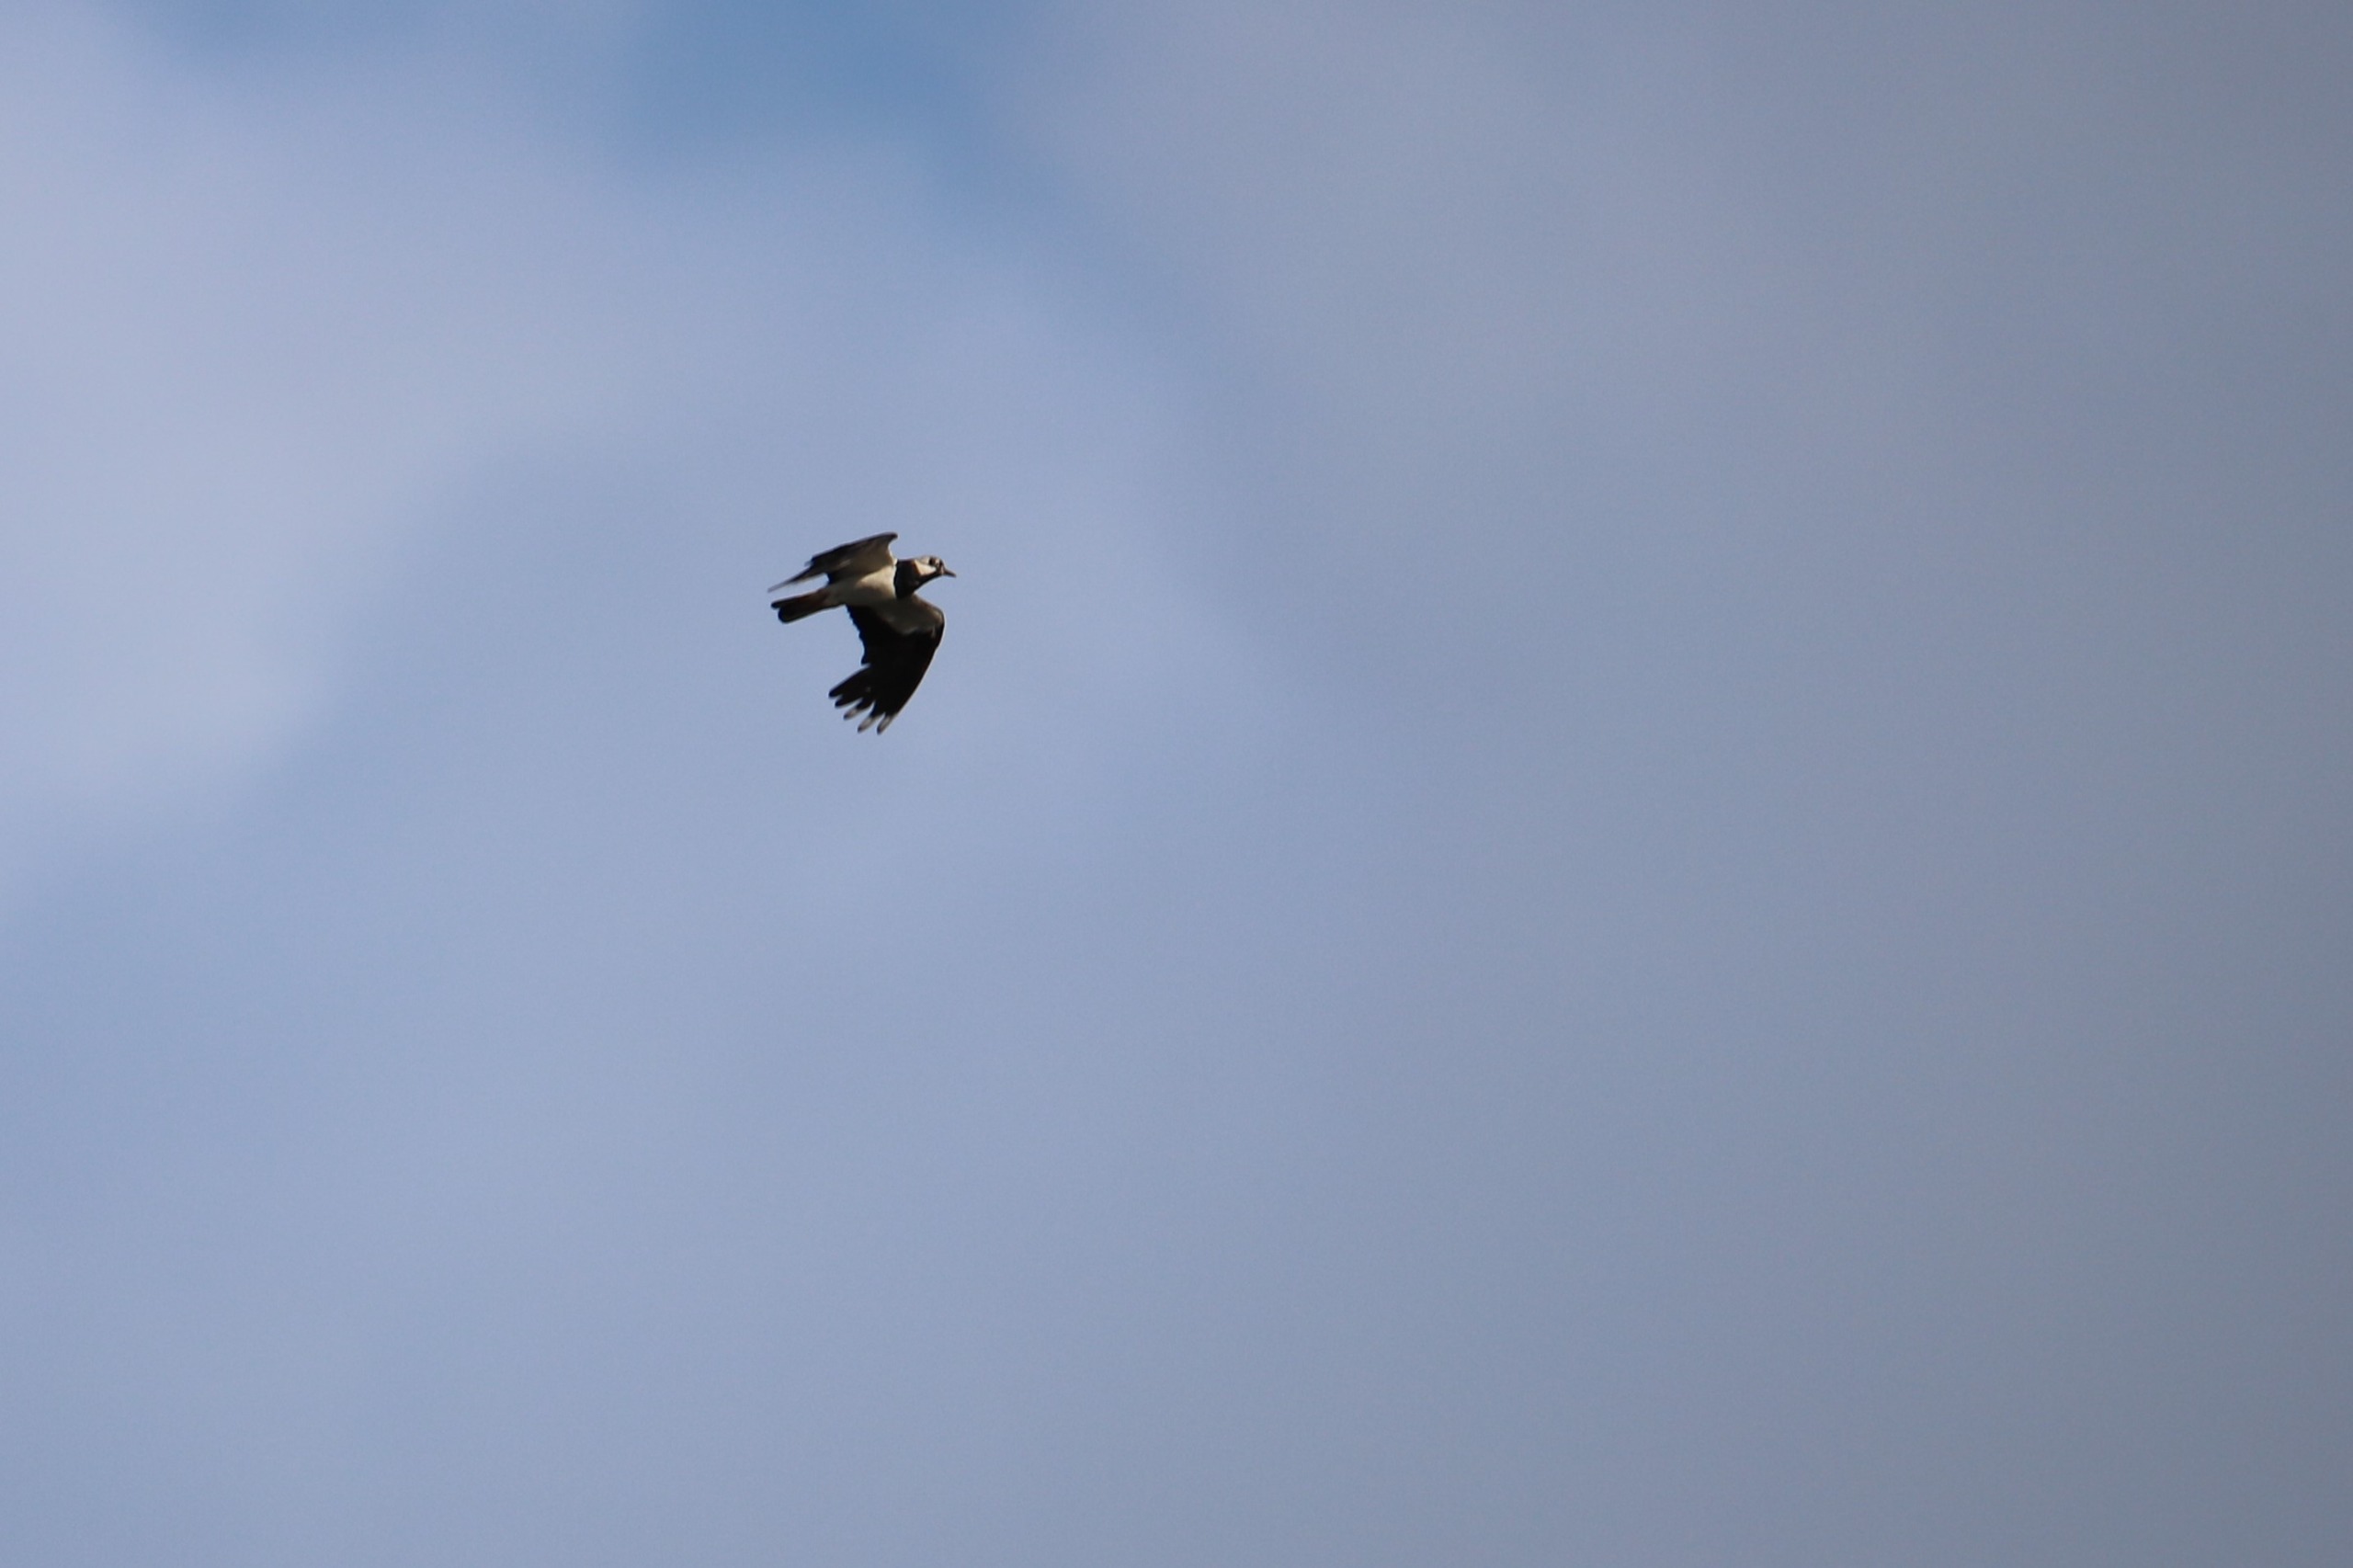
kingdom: Animalia
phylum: Chordata
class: Aves
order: Charadriiformes
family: Charadriidae
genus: Vanellus
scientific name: Vanellus vanellus
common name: Vibe
